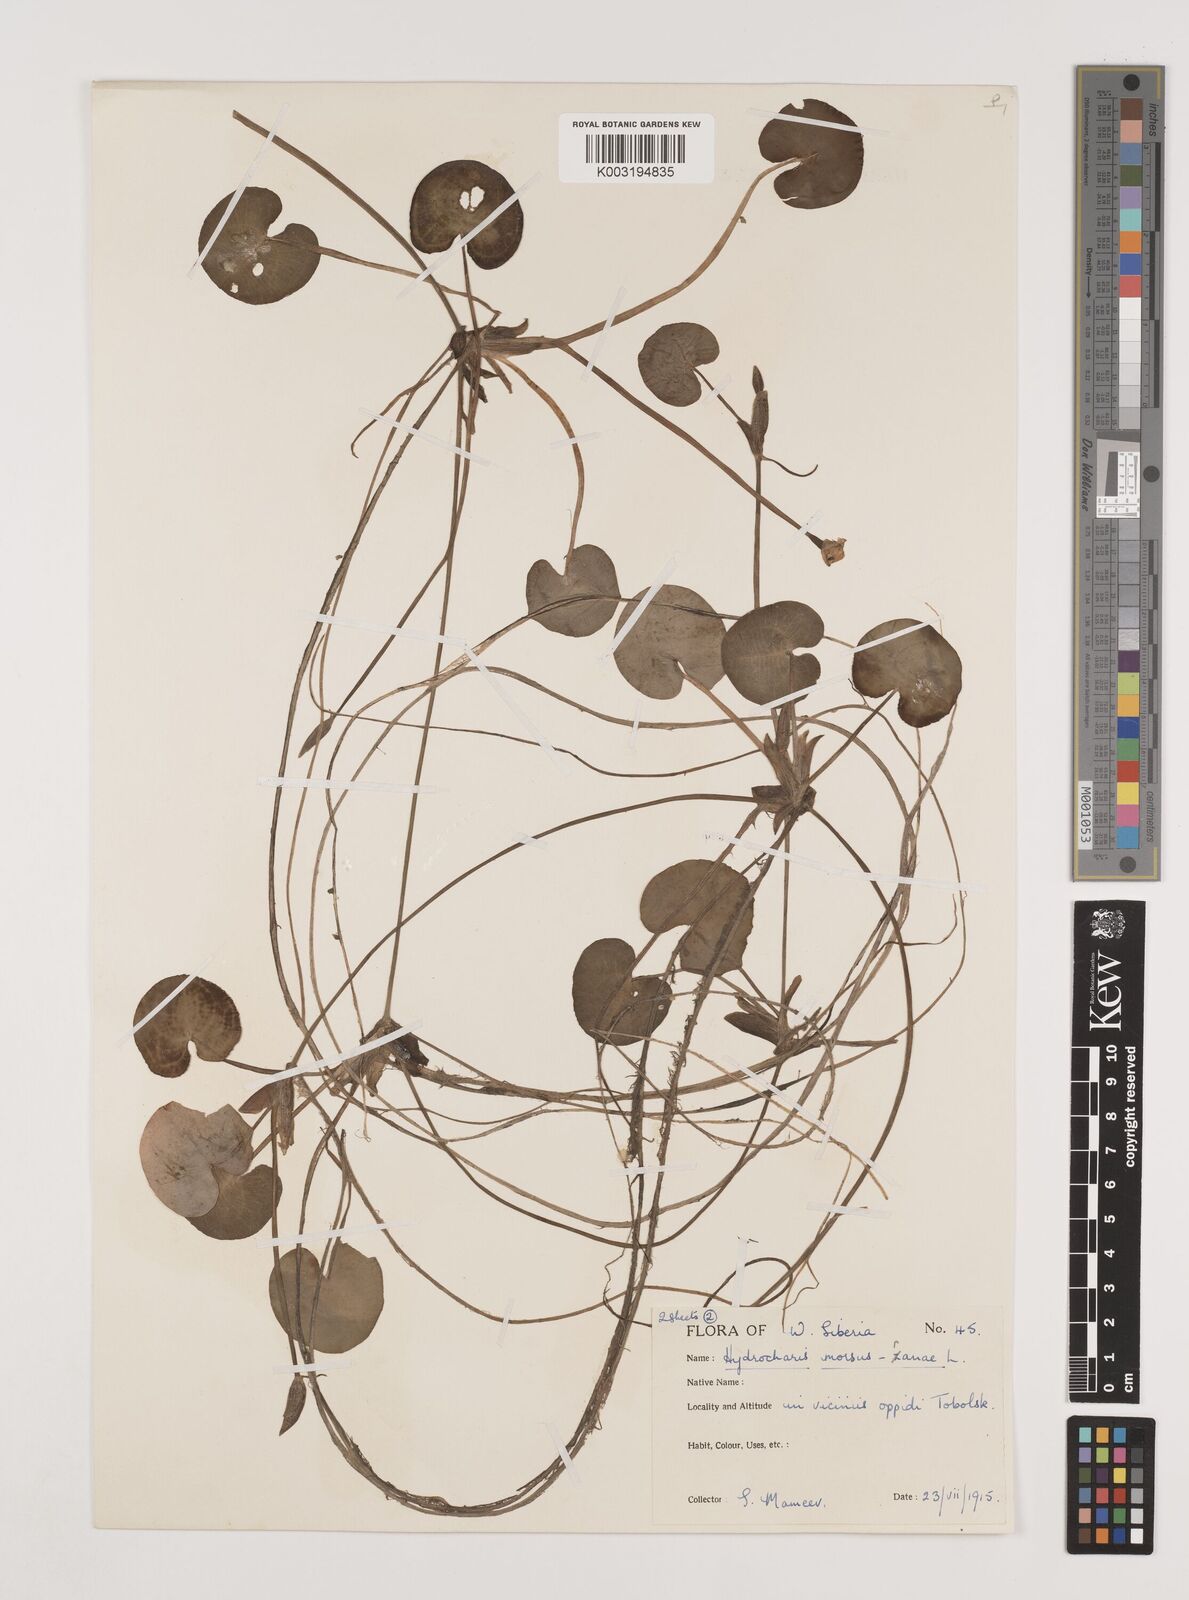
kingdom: Plantae
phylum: Tracheophyta
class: Liliopsida
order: Alismatales
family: Hydrocharitaceae
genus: Hydrocharis
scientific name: Hydrocharis morsus-ranae
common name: Frogbit
